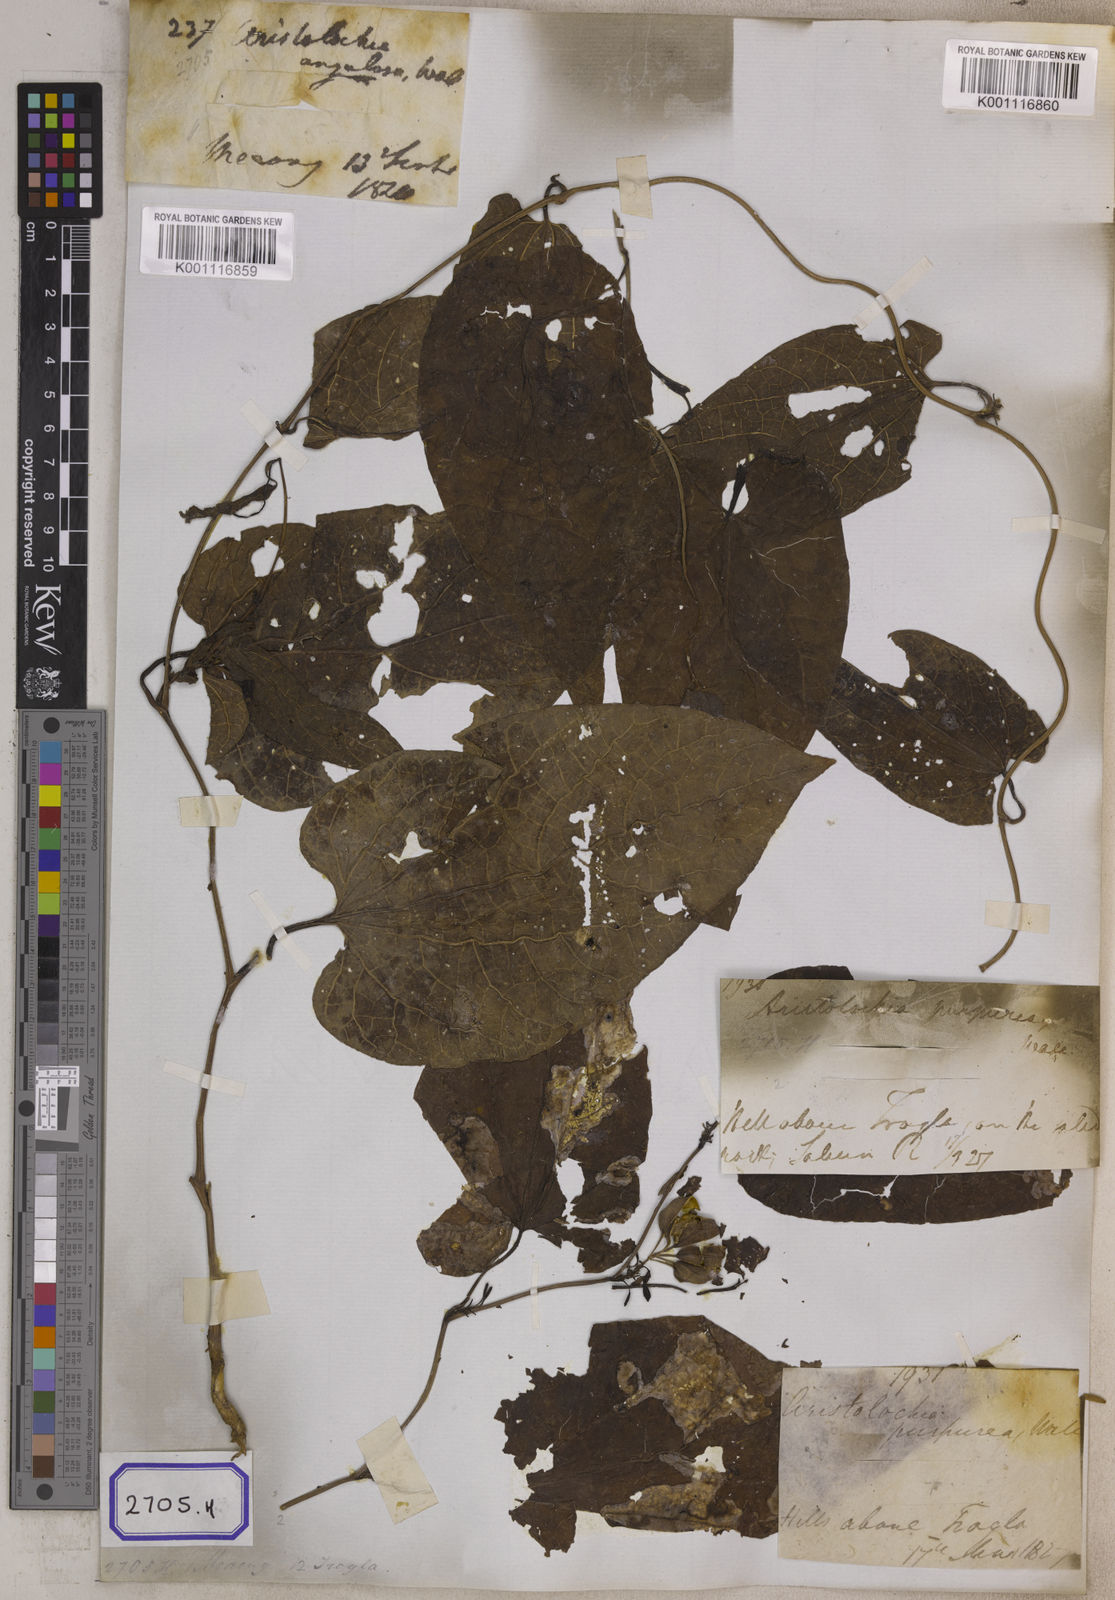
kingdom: Plantae
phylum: Tracheophyta
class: Magnoliopsida
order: Piperales
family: Aristolochiaceae
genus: Aristolochia
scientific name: Aristolochia acuminata
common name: Indian birthwort
